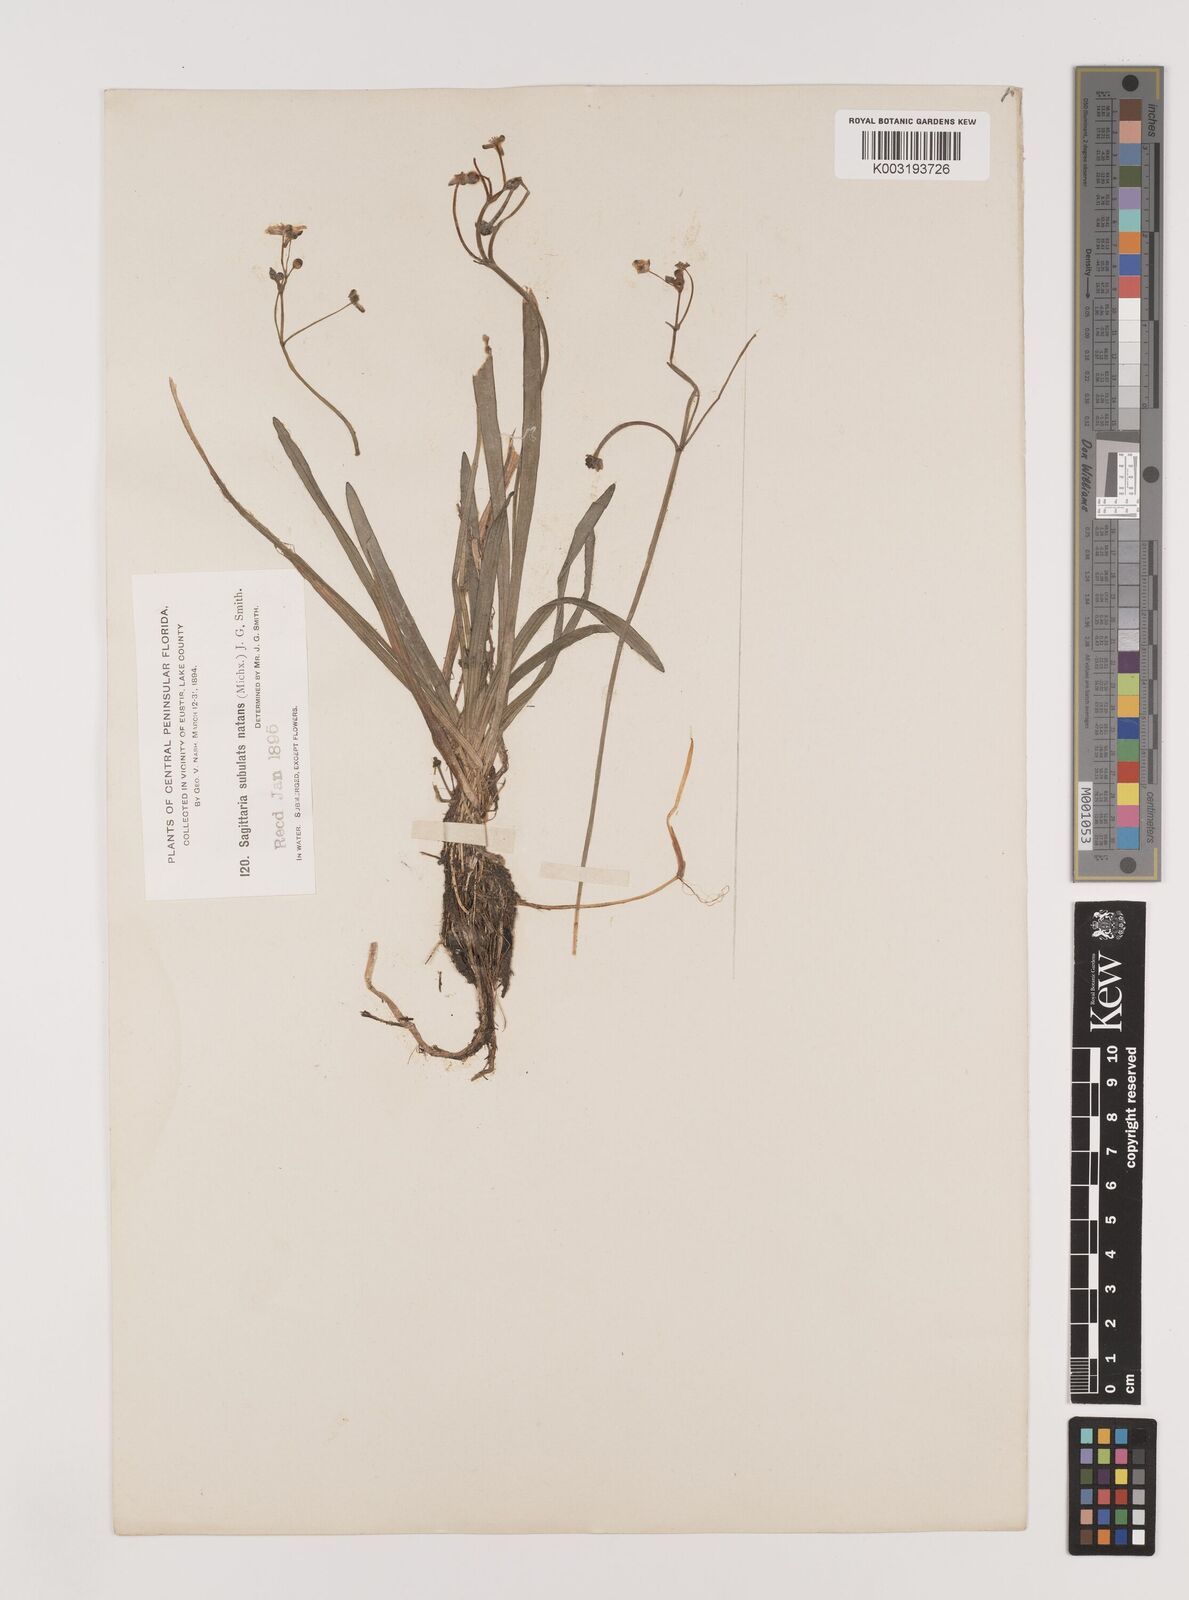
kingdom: Plantae
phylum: Tracheophyta
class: Liliopsida
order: Alismatales
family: Alismataceae
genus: Sagittaria
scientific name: Sagittaria subulata
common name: Narrow-leaved arrowhead
